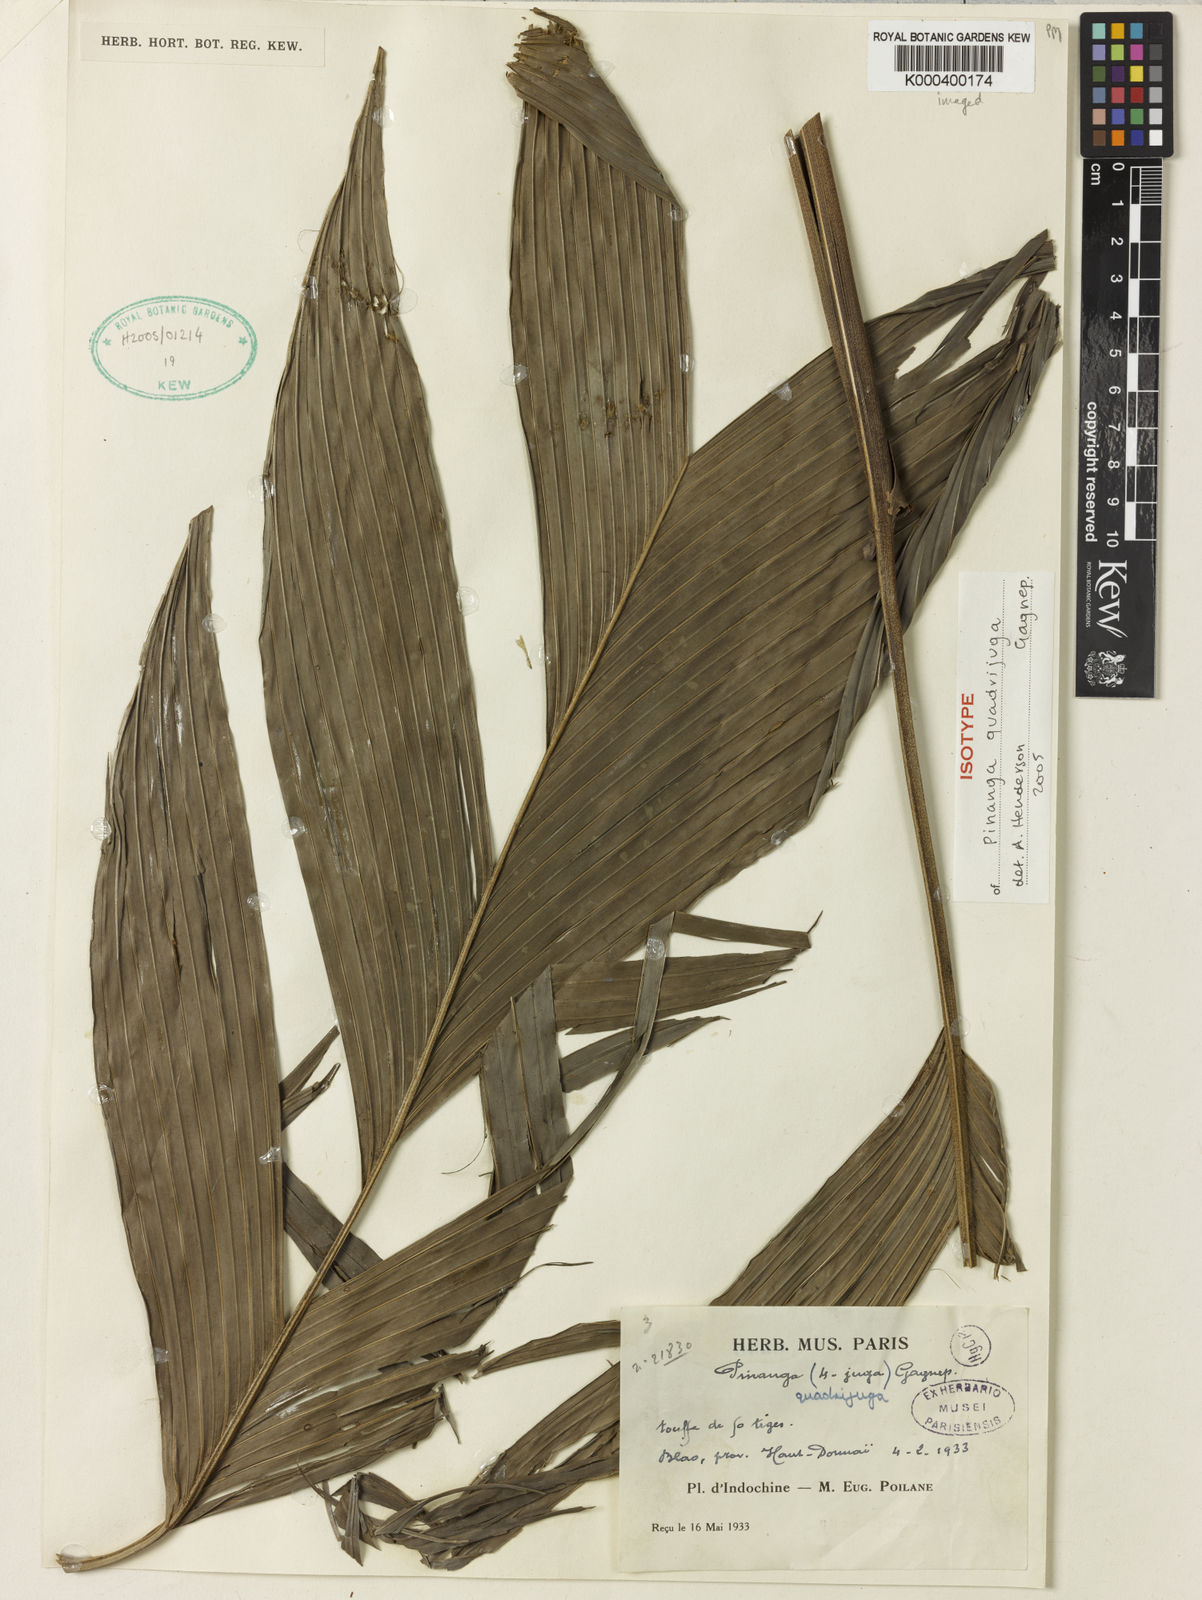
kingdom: Plantae
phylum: Tracheophyta
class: Liliopsida
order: Arecales
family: Arecaceae
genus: Pinanga
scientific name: Pinanga quadrijuga
